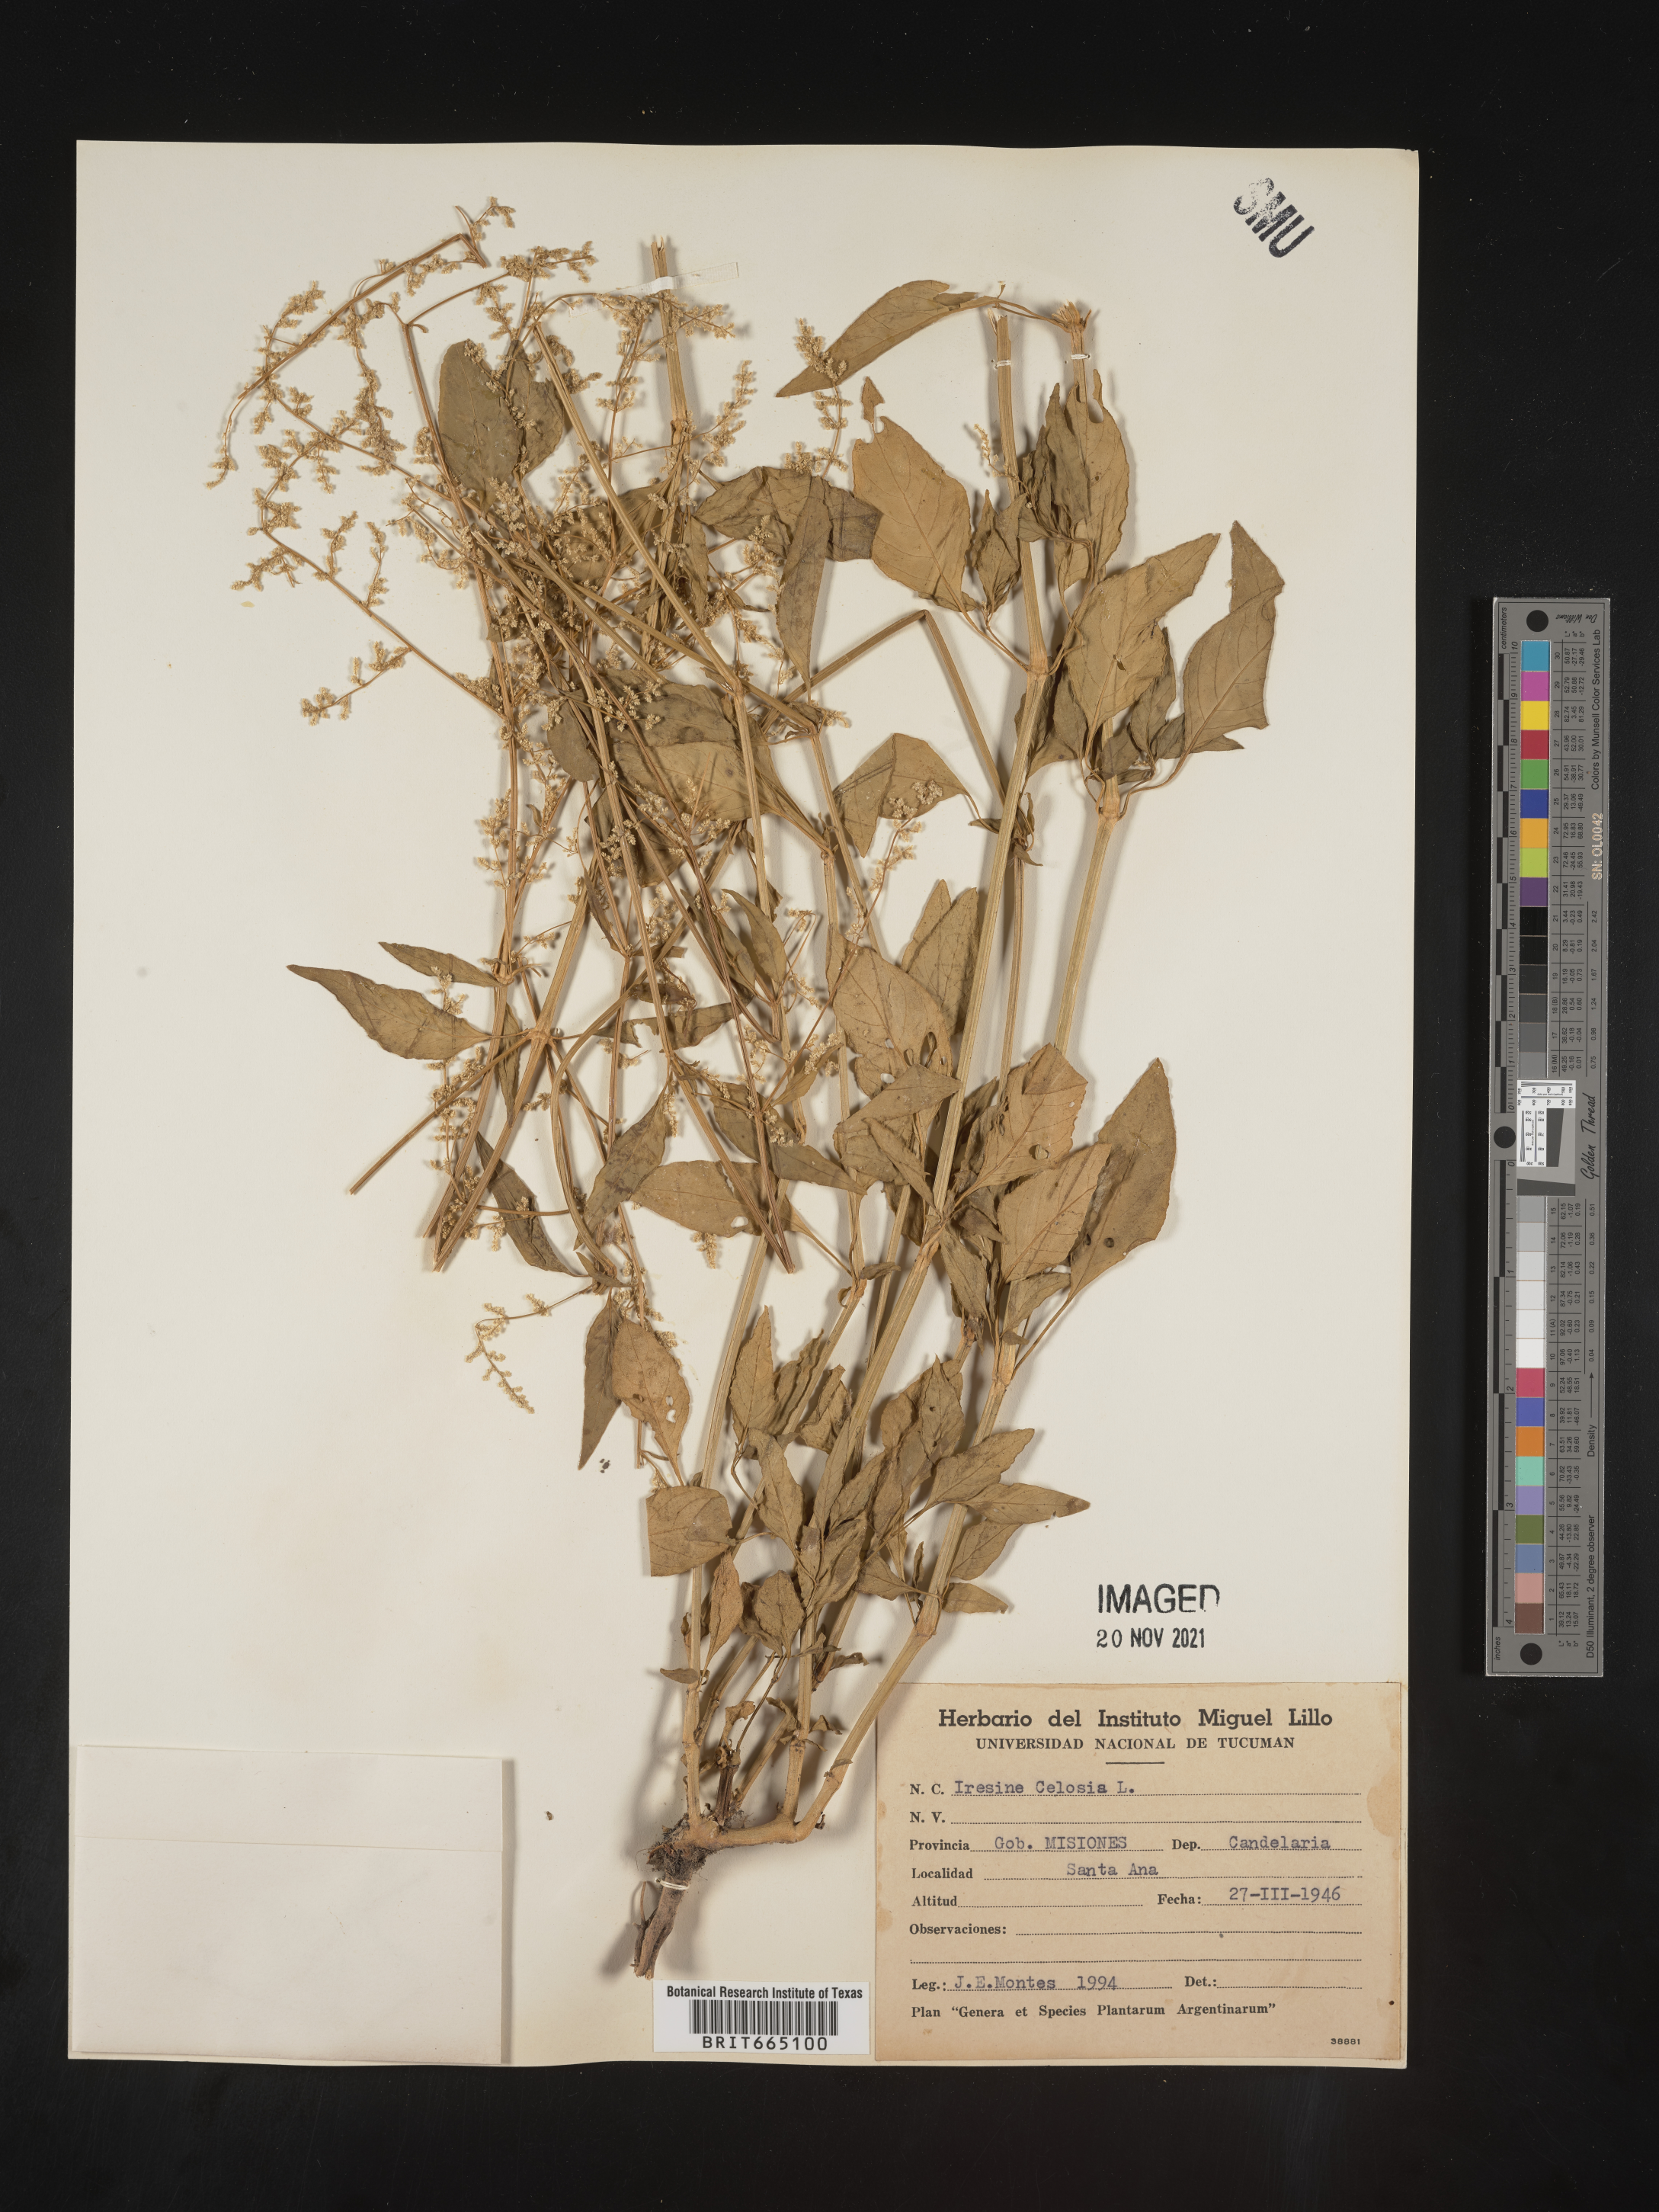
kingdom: Plantae
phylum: Tracheophyta
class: Magnoliopsida
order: Caryophyllales
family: Amaranthaceae
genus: Iresine
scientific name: Iresine
